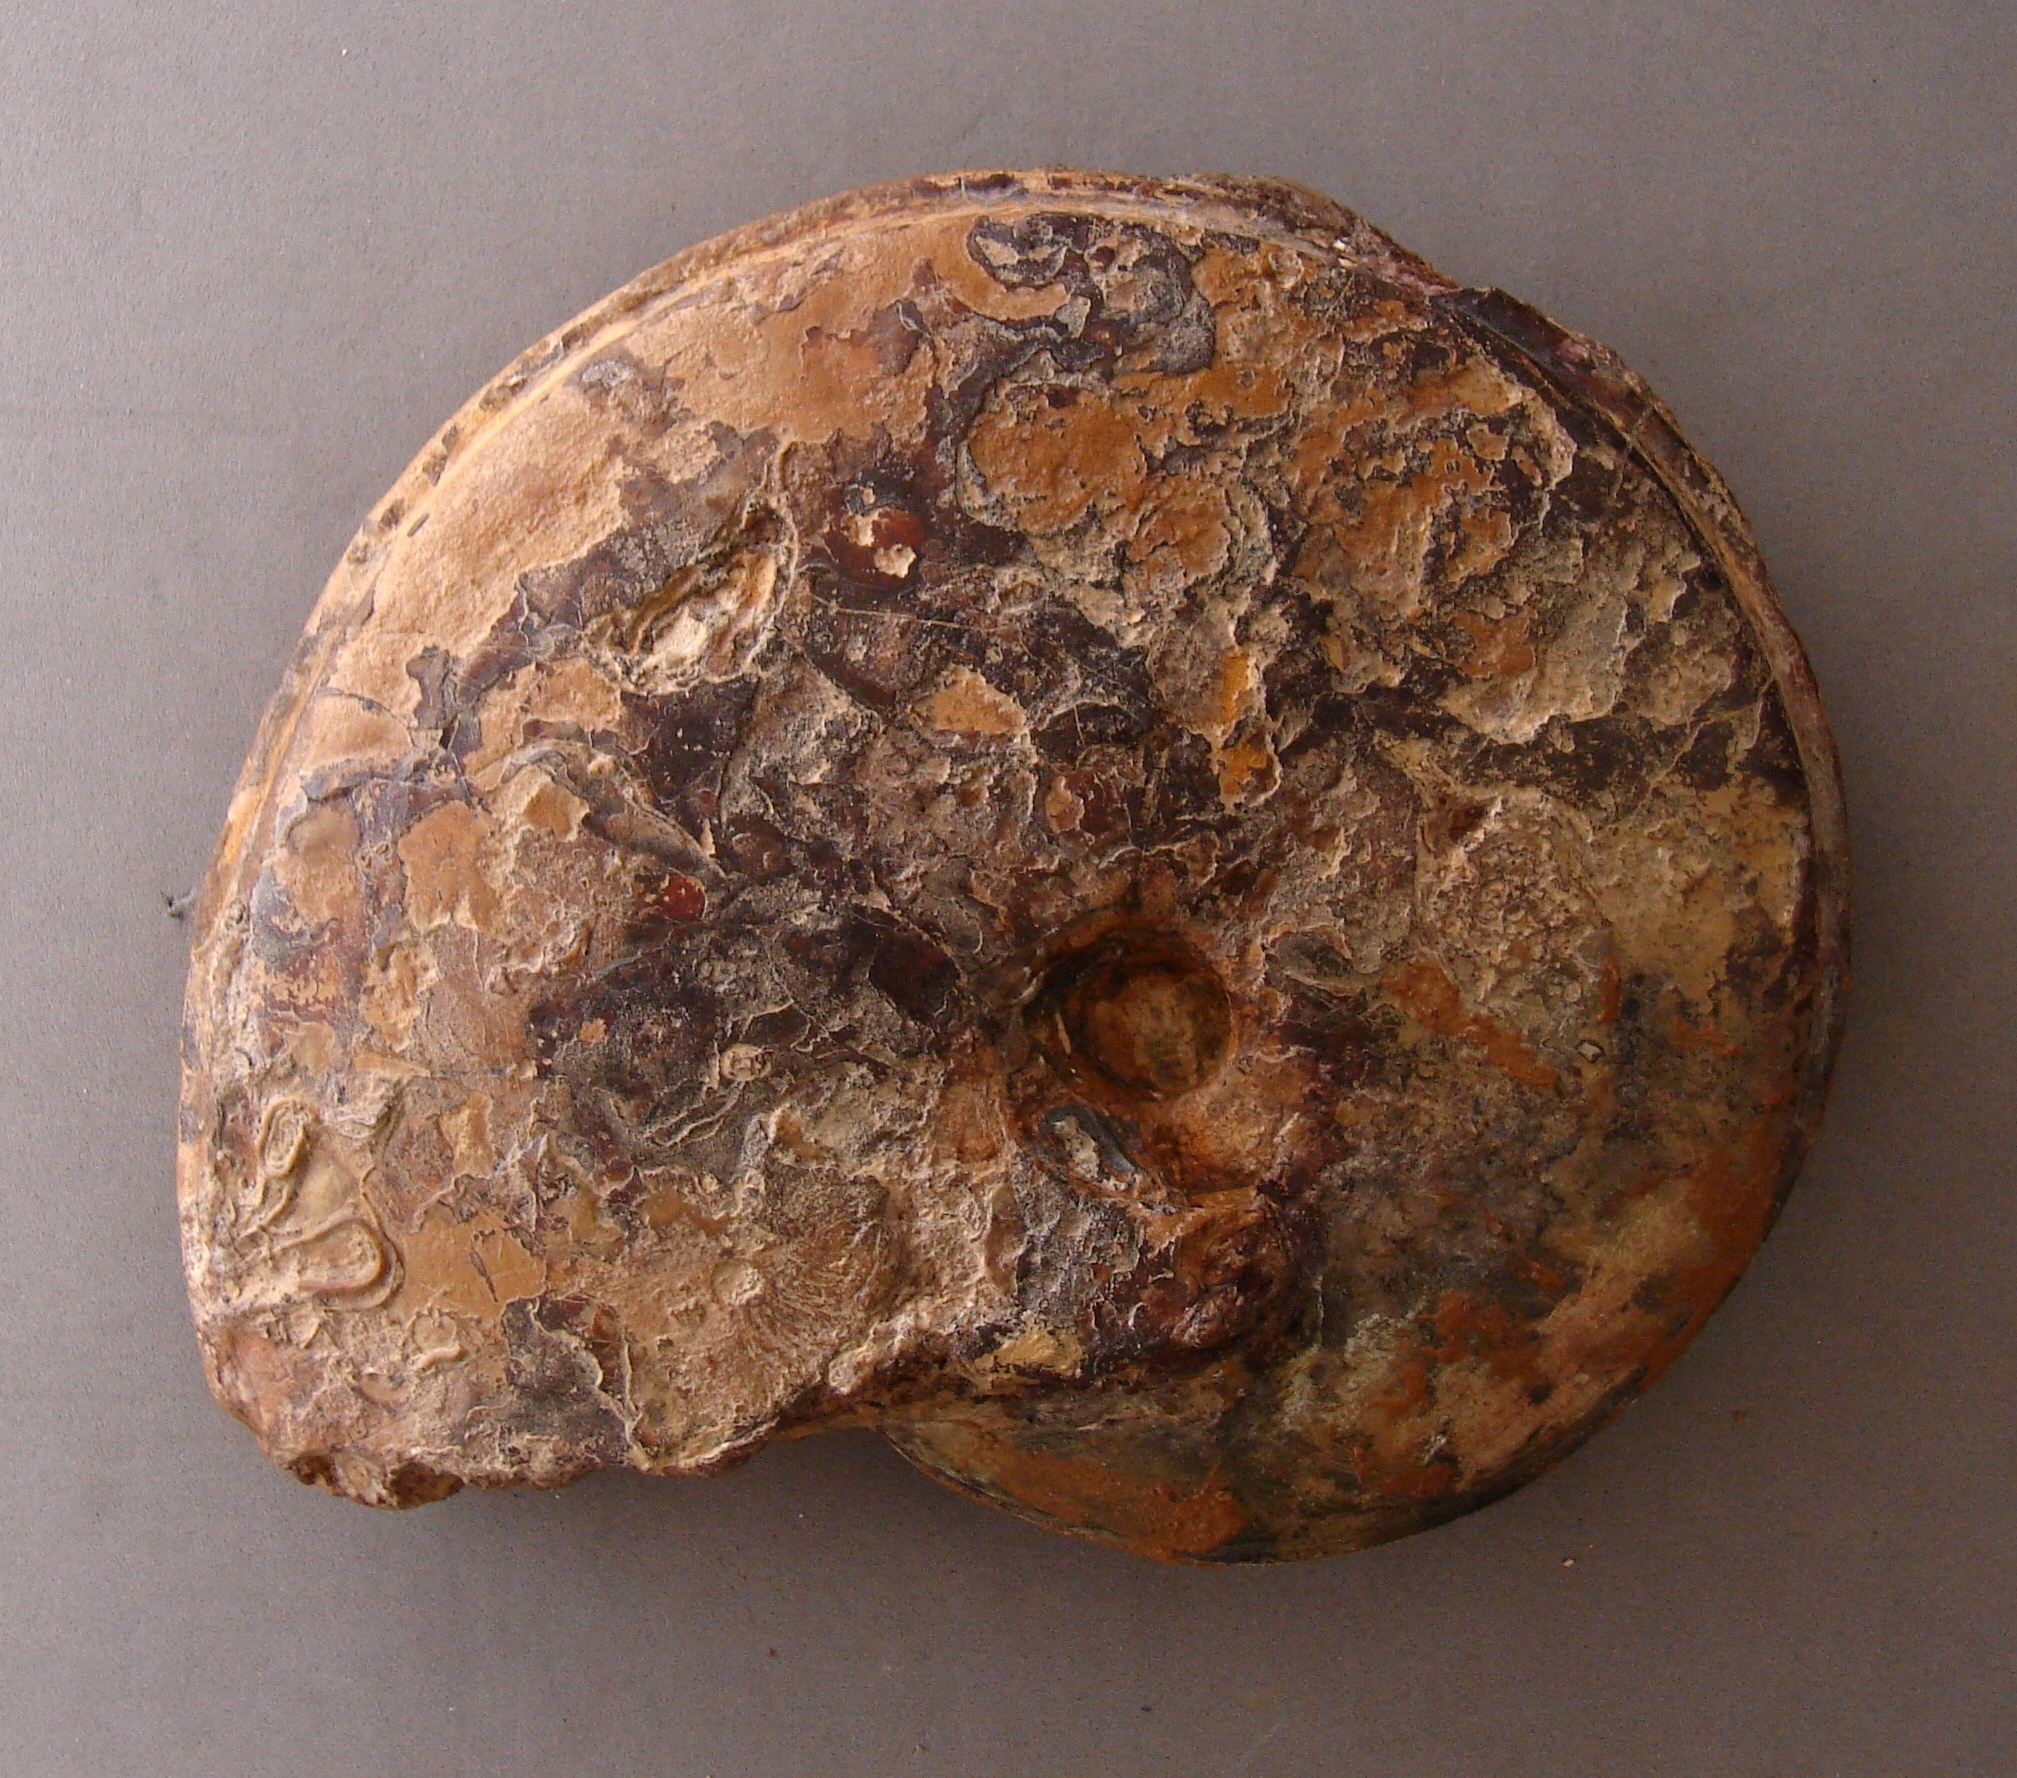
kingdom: Animalia
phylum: Mollusca
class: Cephalopoda
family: Graphoceratidae
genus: Hyperlioceras
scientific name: Hyperlioceras
